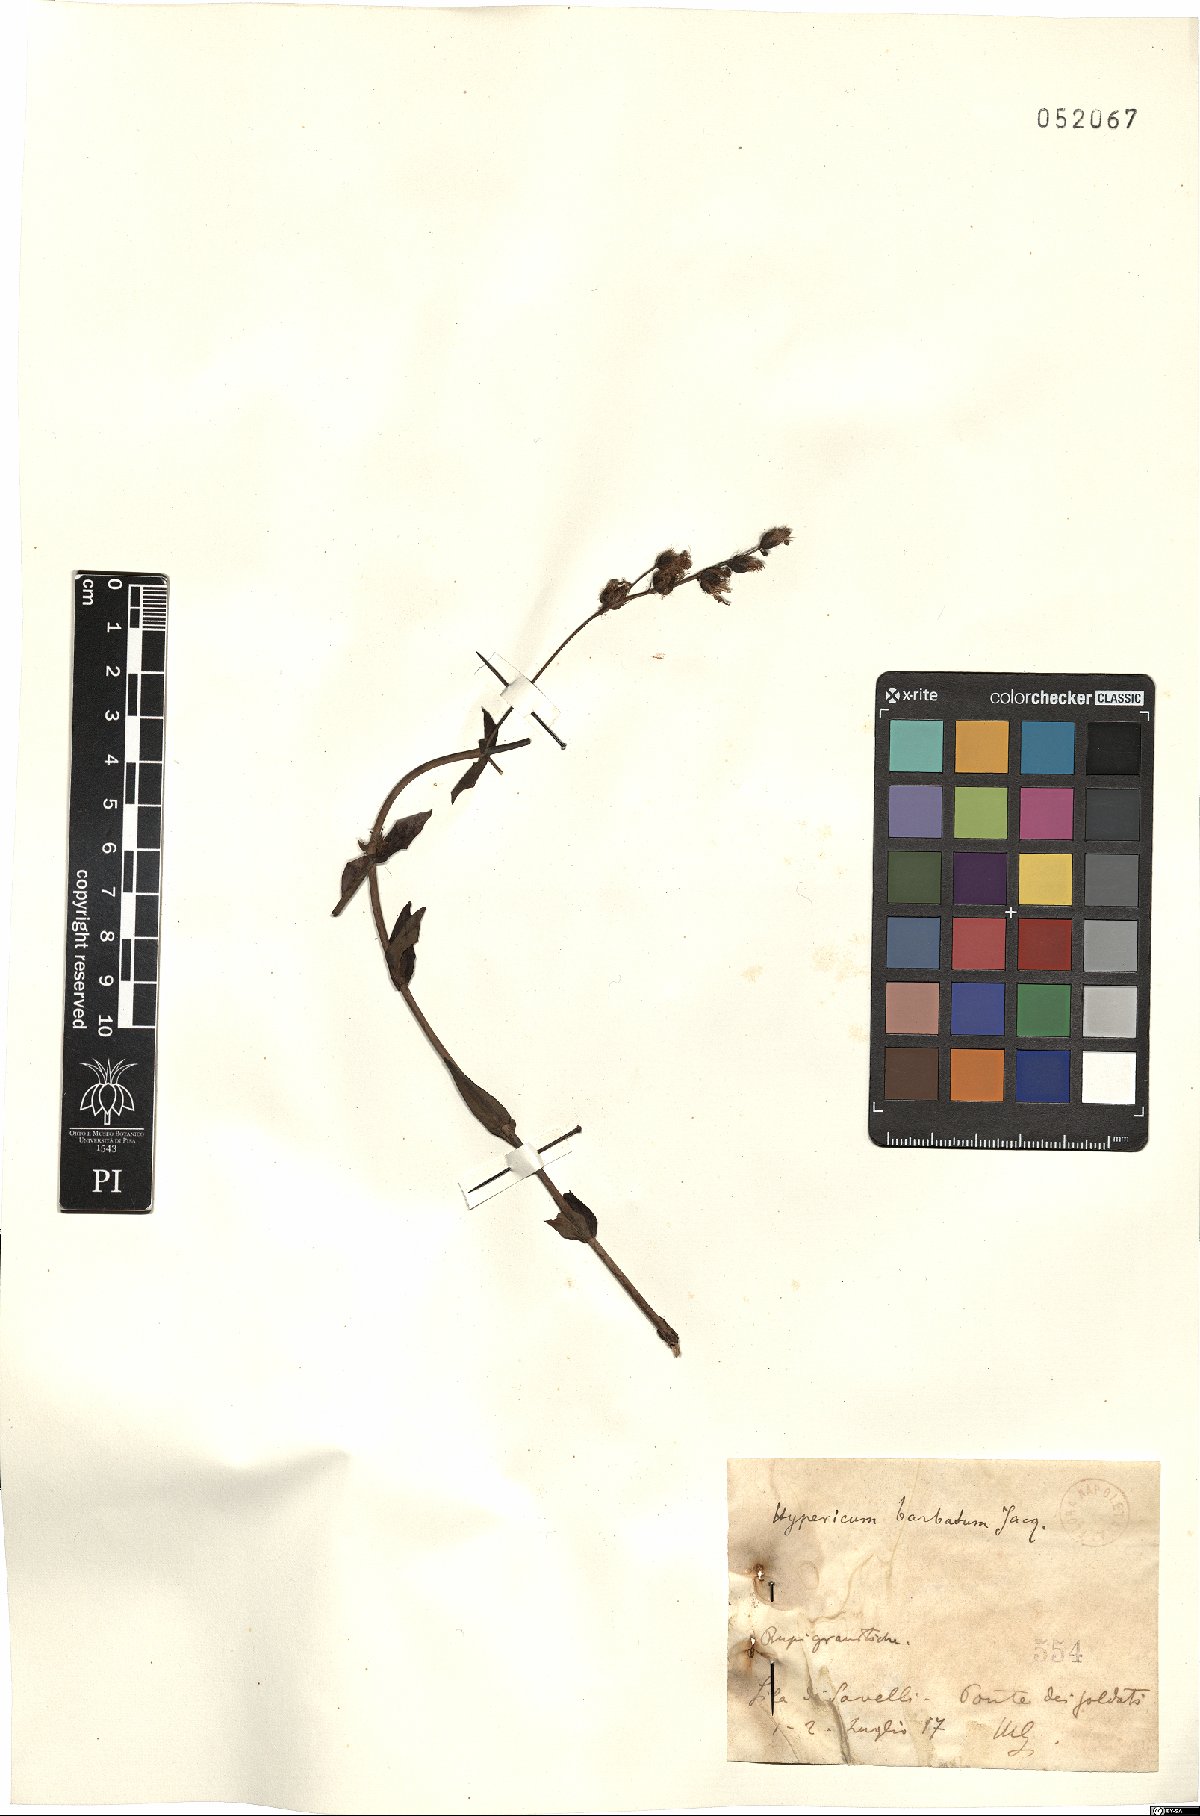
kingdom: Plantae
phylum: Tracheophyta
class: Magnoliopsida
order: Malpighiales
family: Hypericaceae
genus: Hypericum
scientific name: Hypericum barbatum
